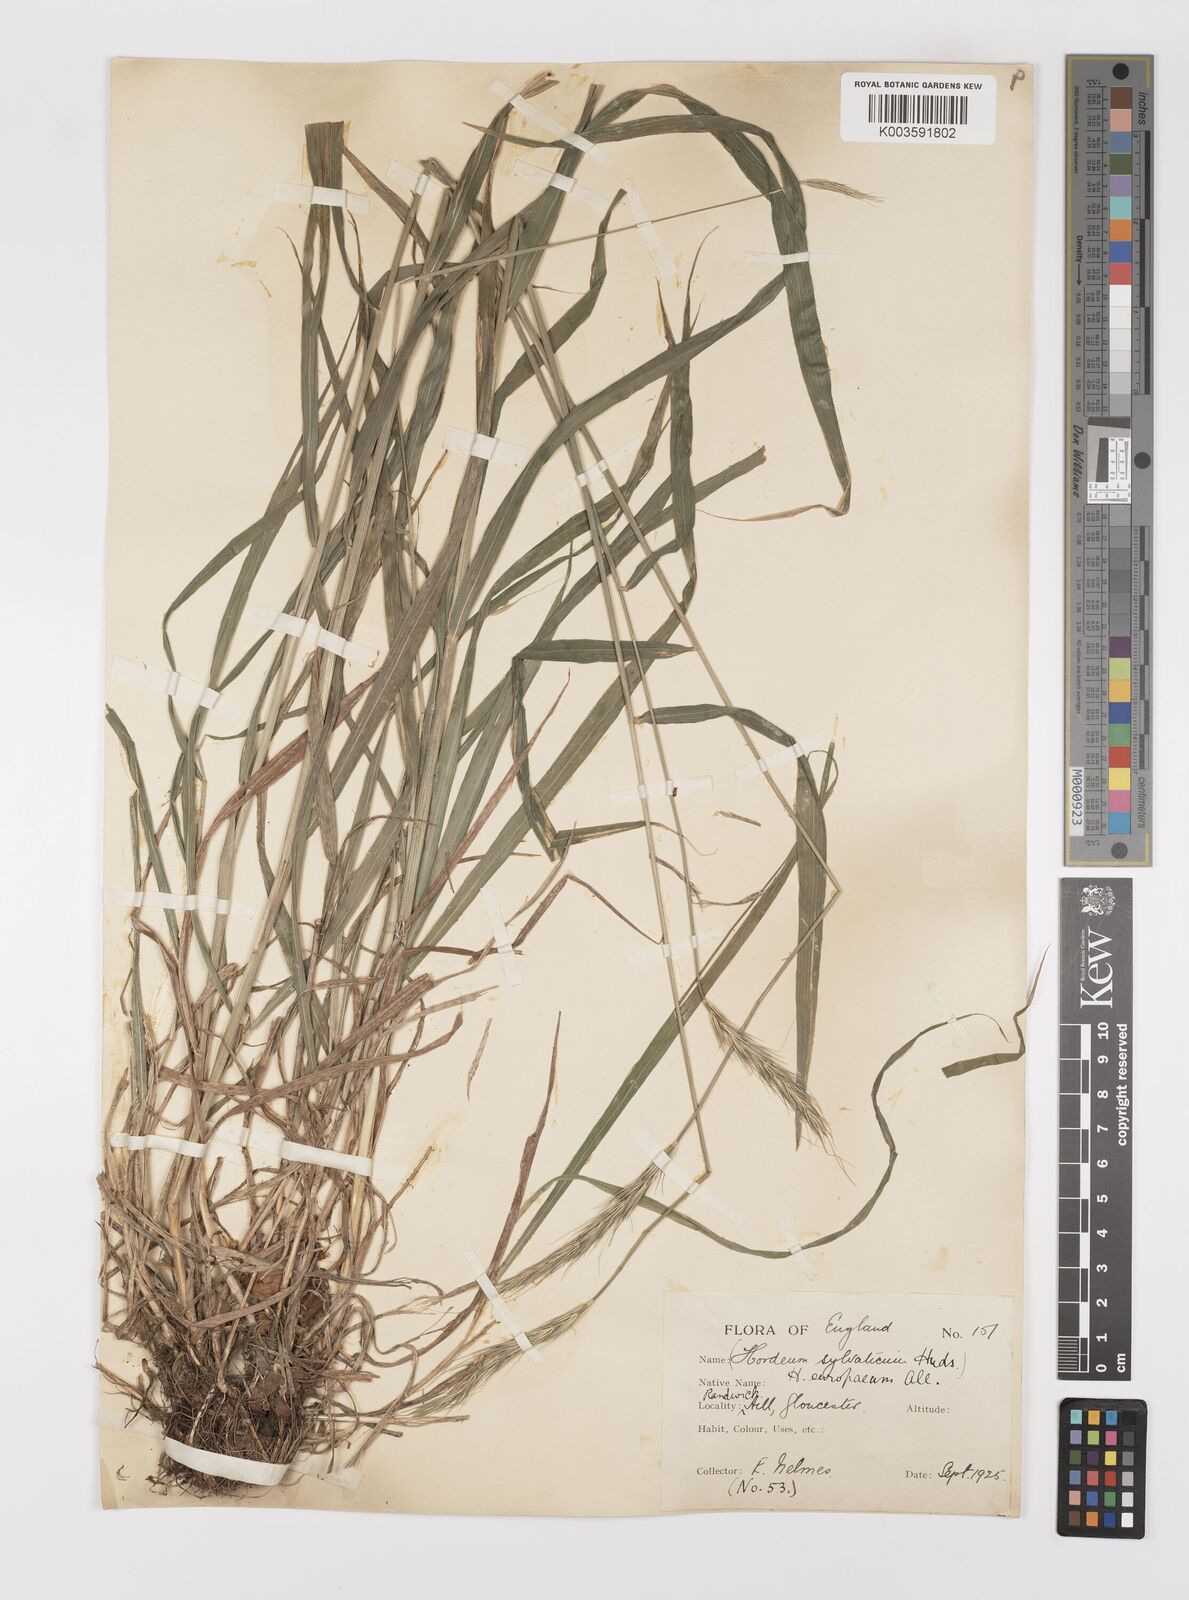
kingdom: Plantae
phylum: Tracheophyta
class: Liliopsida
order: Poales
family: Poaceae
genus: Hordelymus
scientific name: Hordelymus europaeus
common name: Wood-barley
